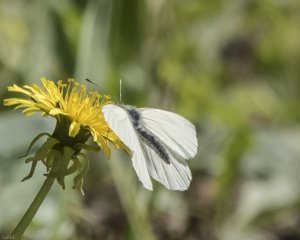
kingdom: Animalia
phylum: Arthropoda
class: Insecta
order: Lepidoptera
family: Pieridae
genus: Pieris
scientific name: Pieris oleracea
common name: Mustard White
